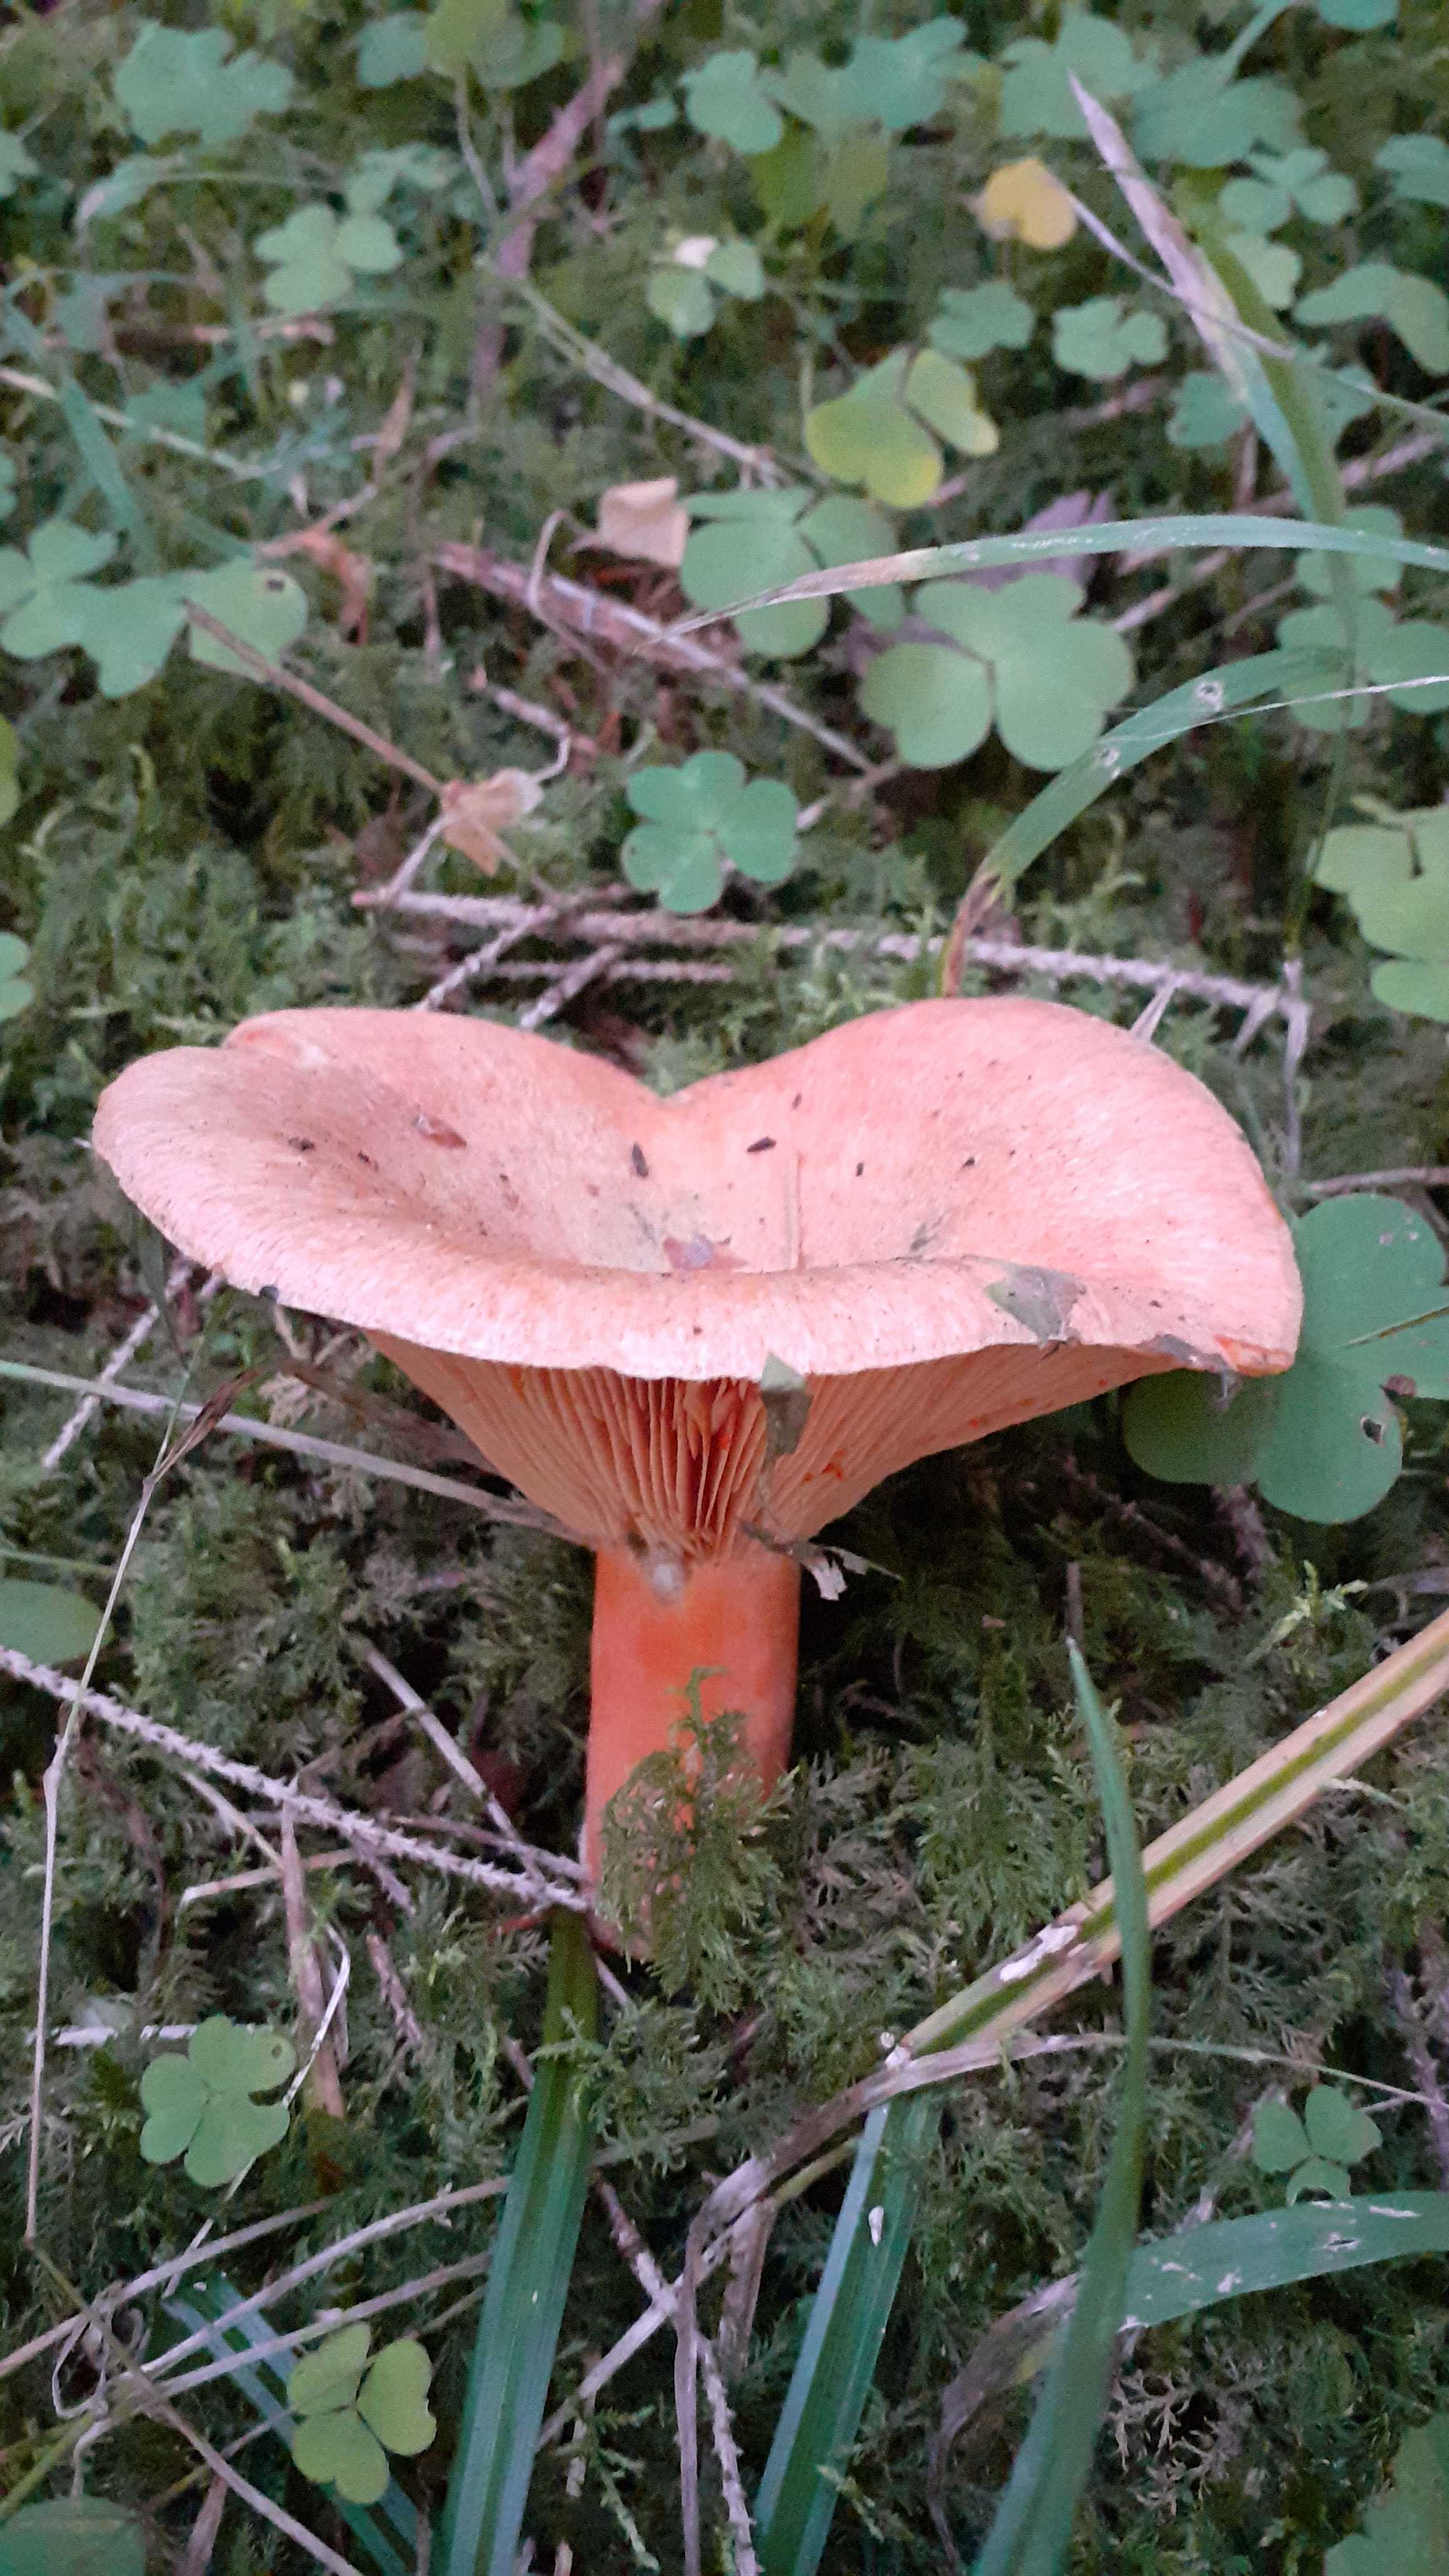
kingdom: Fungi
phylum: Basidiomycota
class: Agaricomycetes
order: Russulales
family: Russulaceae
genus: Lactarius
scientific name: Lactarius deterrimus
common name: gran-mælkehat
